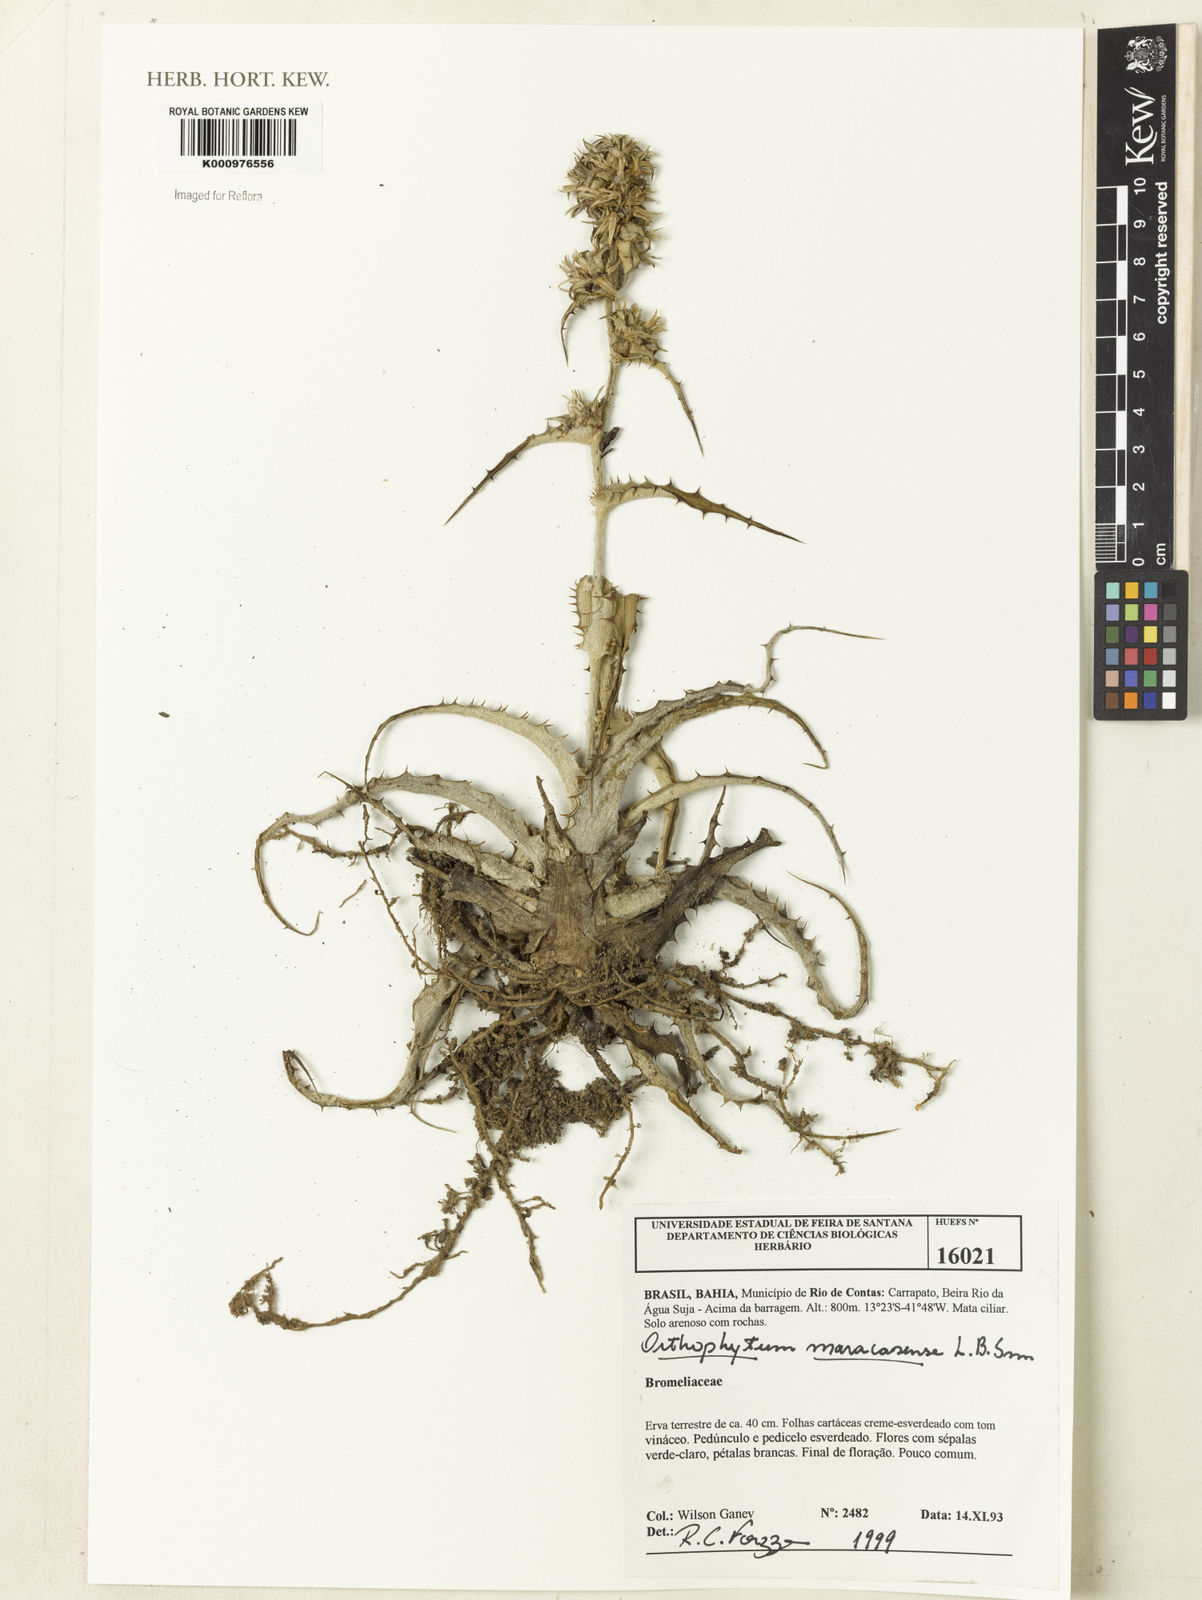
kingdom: Plantae
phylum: Tracheophyta
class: Liliopsida
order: Poales
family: Bromeliaceae
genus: Orthophytum
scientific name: Orthophytum maracasense
